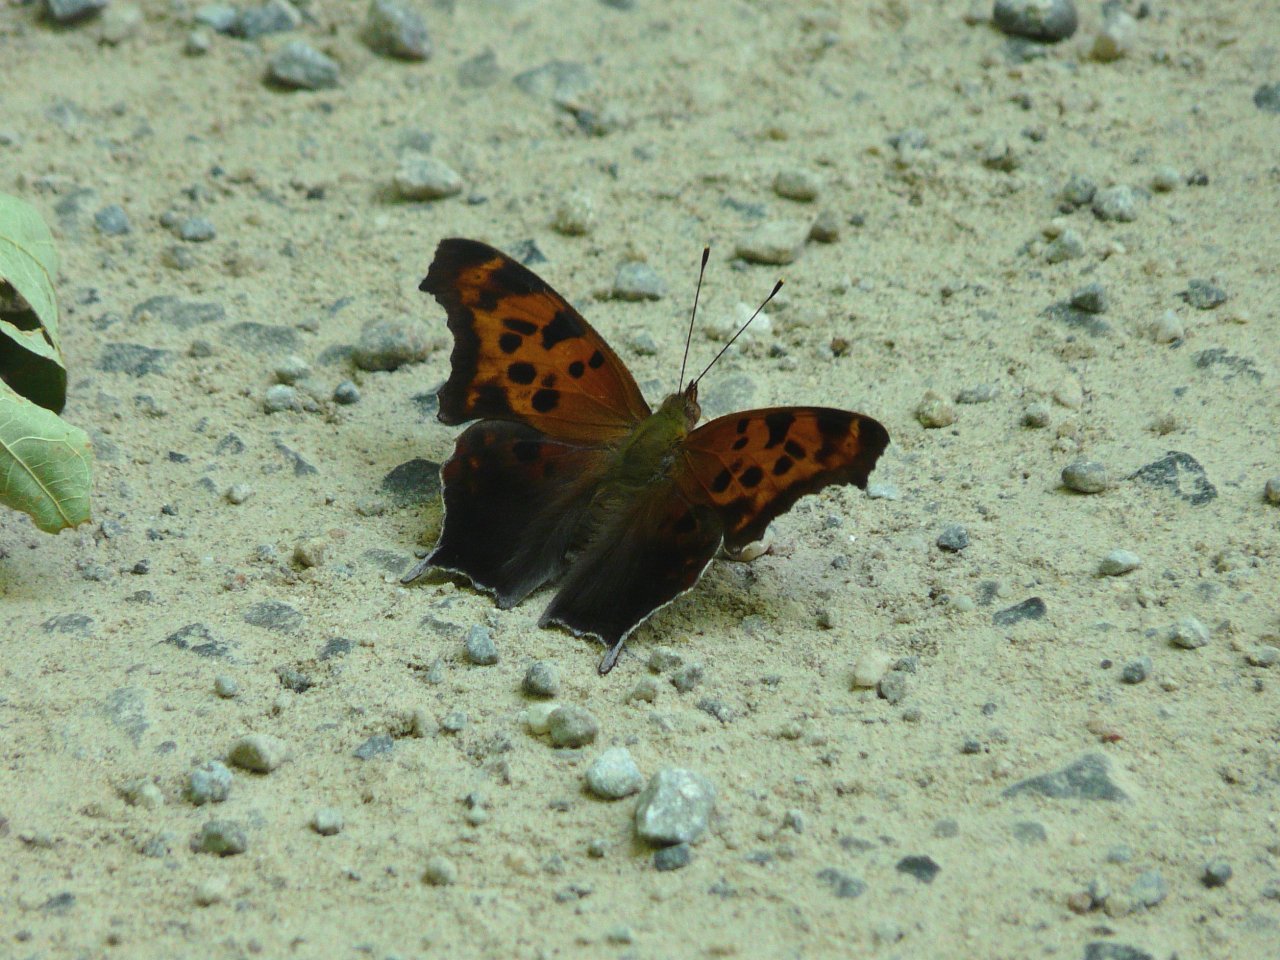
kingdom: Animalia
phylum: Arthropoda
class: Insecta
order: Lepidoptera
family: Nymphalidae
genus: Polygonia
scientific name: Polygonia interrogationis
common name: Question Mark
